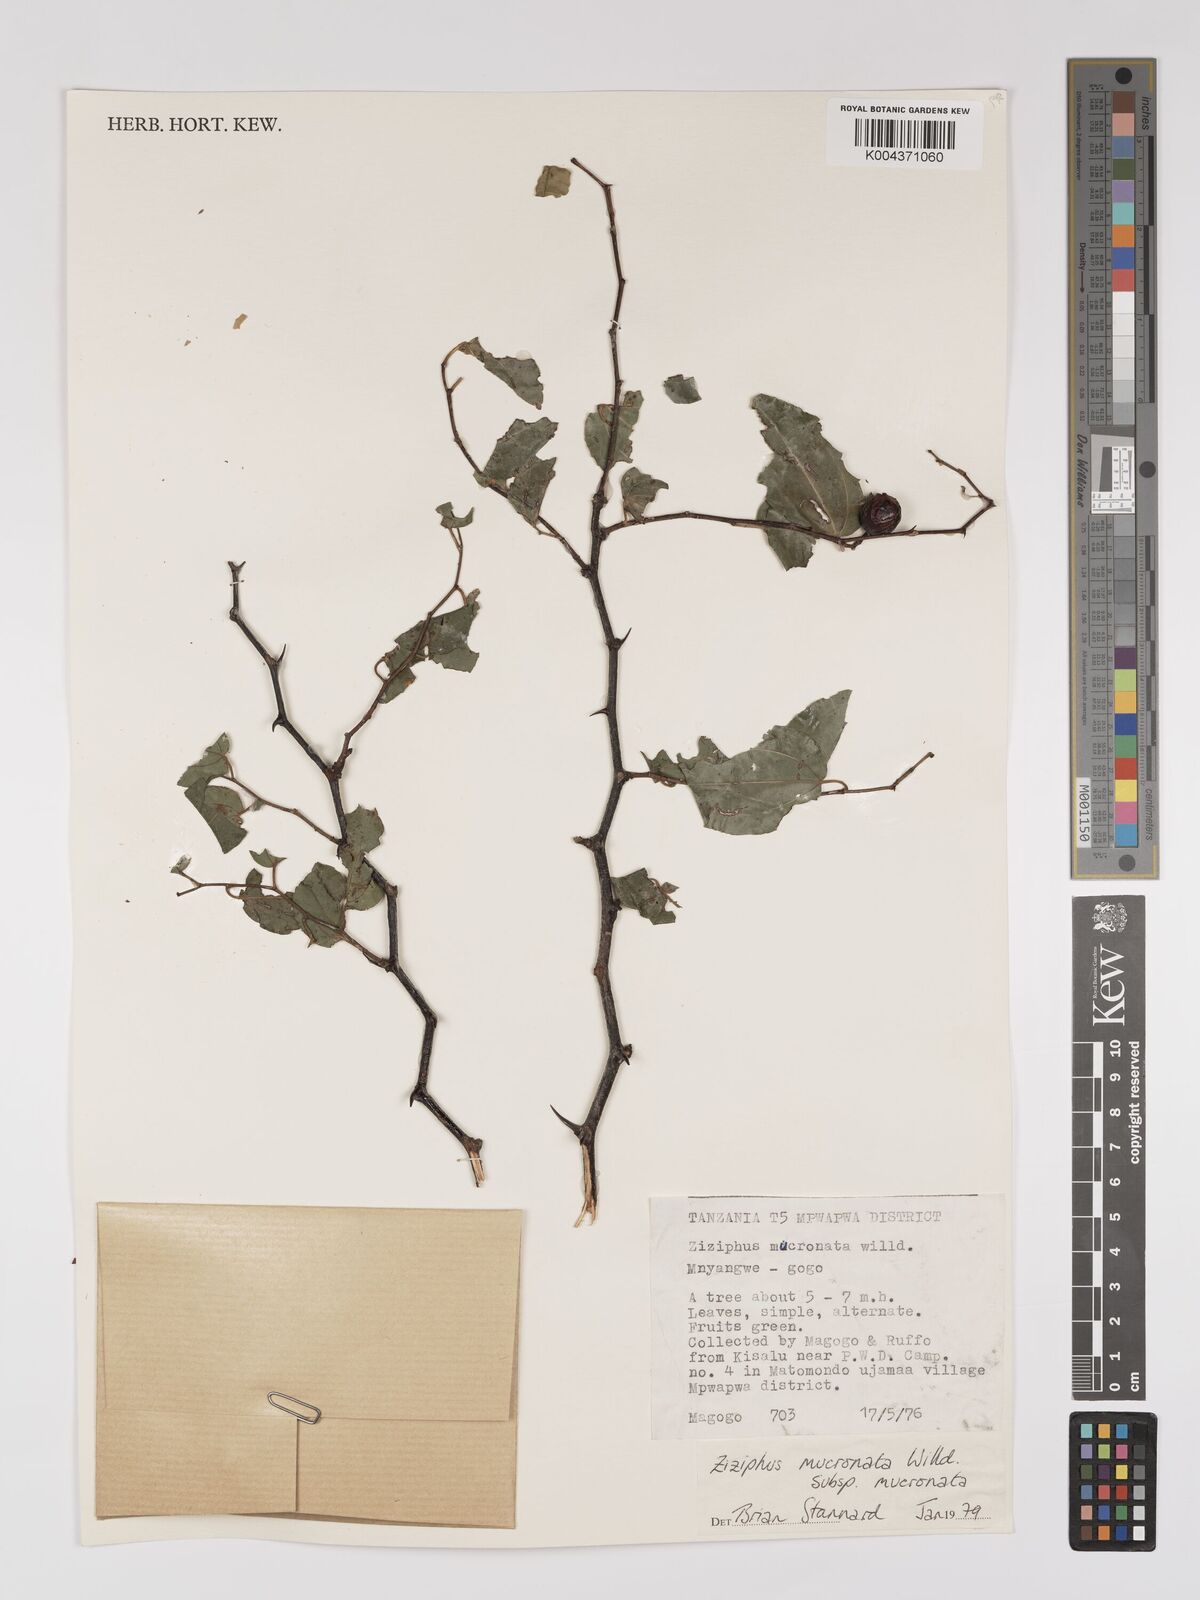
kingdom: Plantae
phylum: Tracheophyta
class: Magnoliopsida
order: Rosales
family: Rhamnaceae
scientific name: Rhamnaceae
